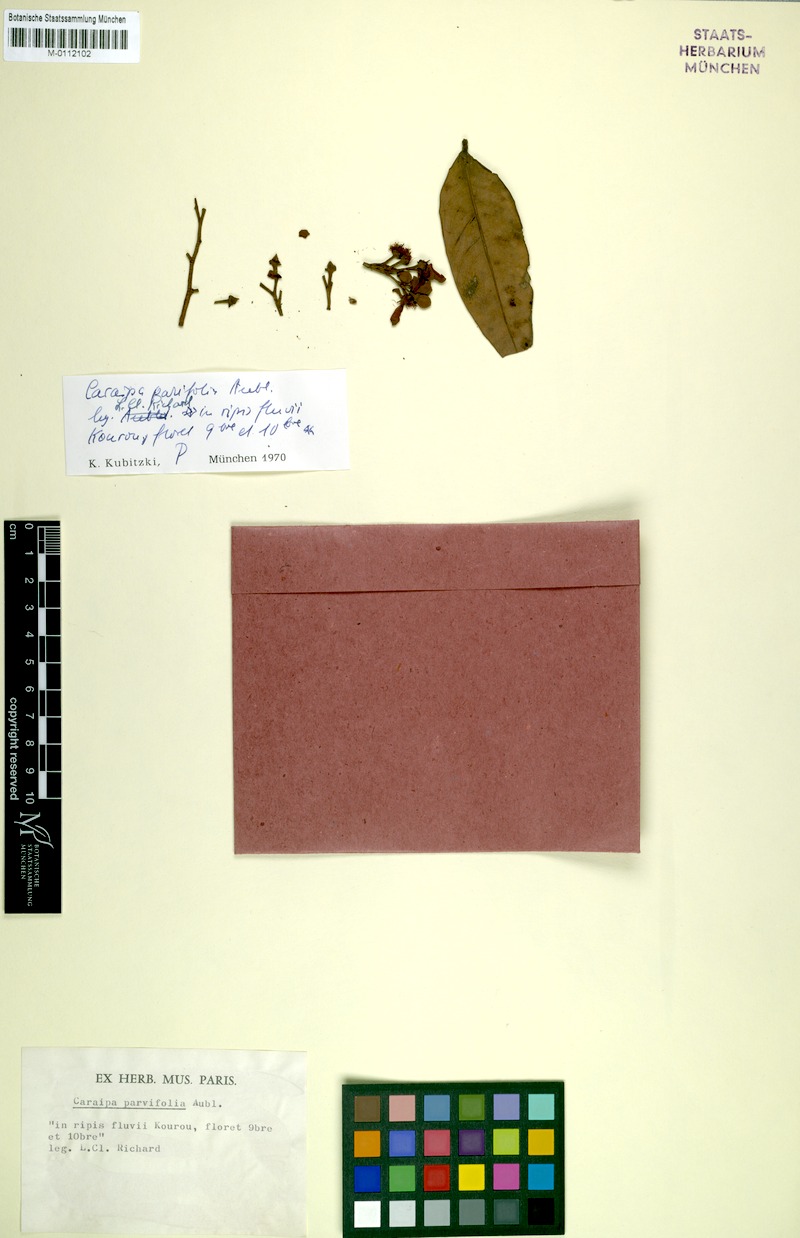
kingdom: Plantae
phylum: Tracheophyta
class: Magnoliopsida
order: Malpighiales
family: Calophyllaceae
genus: Caraipa
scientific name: Caraipa parvifolia
